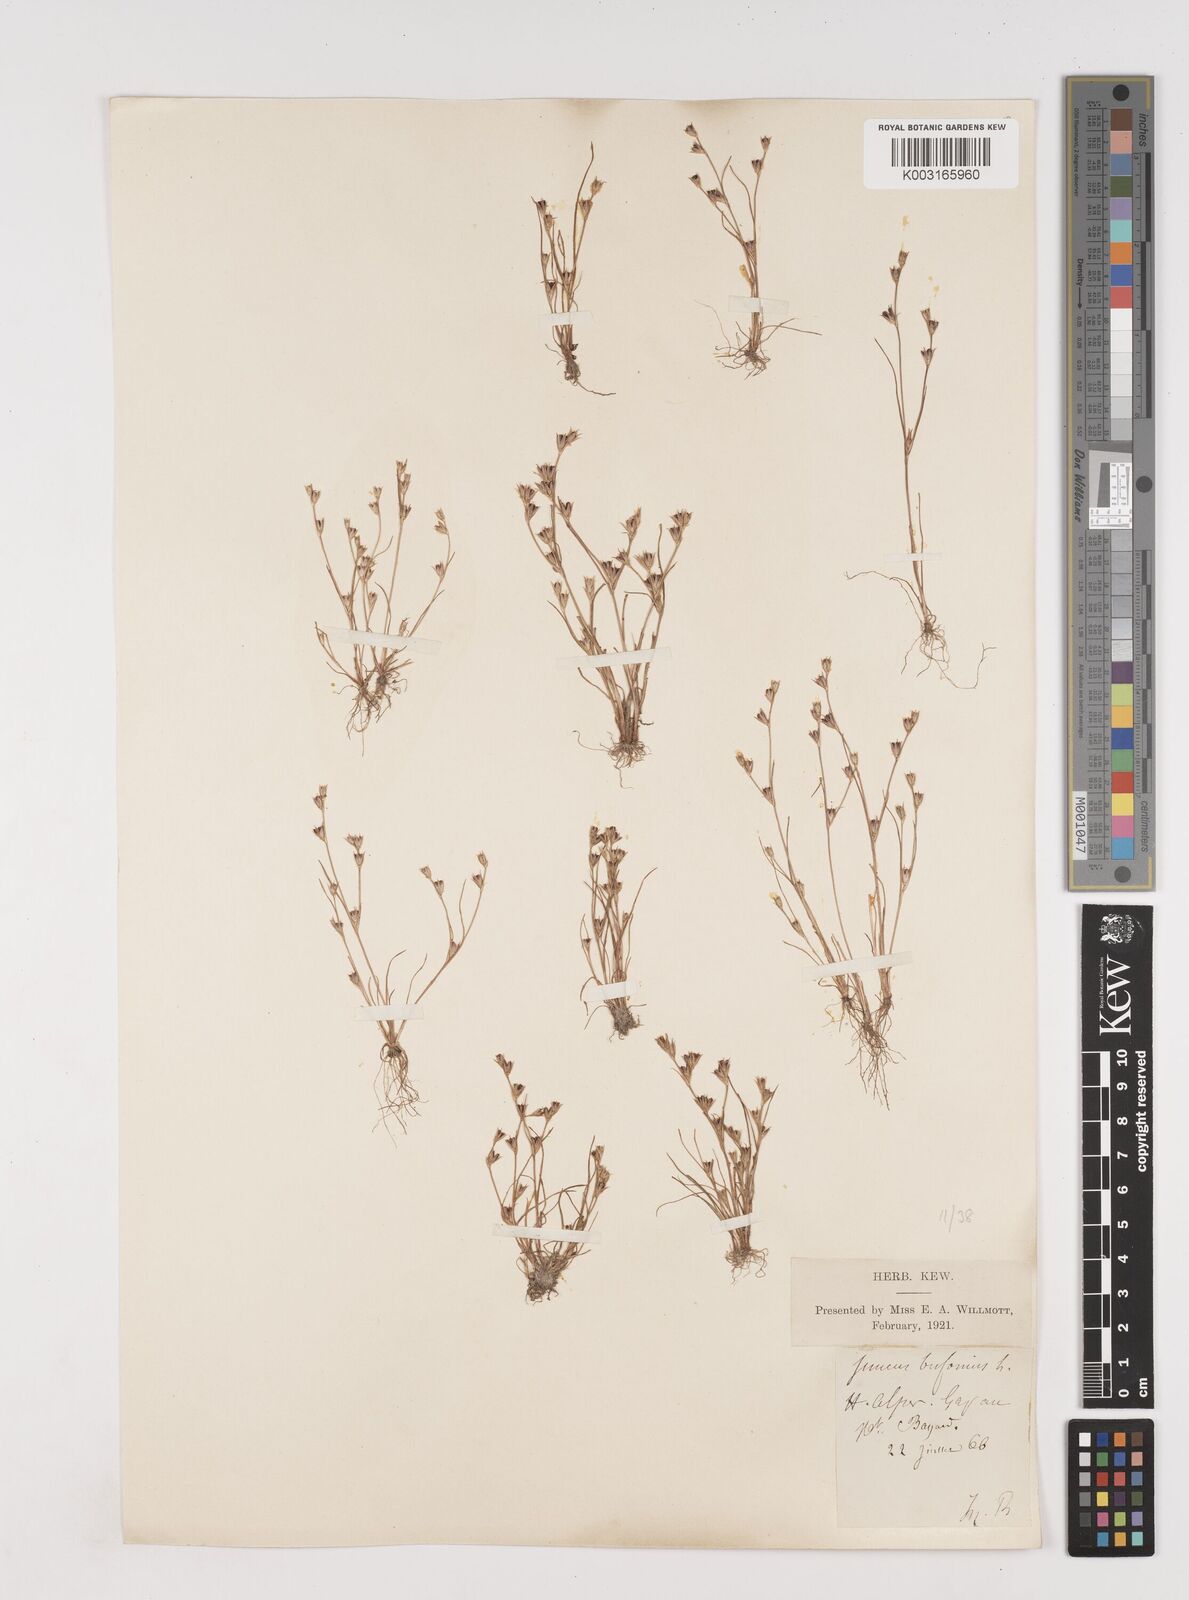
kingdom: Plantae
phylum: Tracheophyta
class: Liliopsida
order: Poales
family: Juncaceae
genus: Juncus
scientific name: Juncus bufonius
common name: Toad rush
